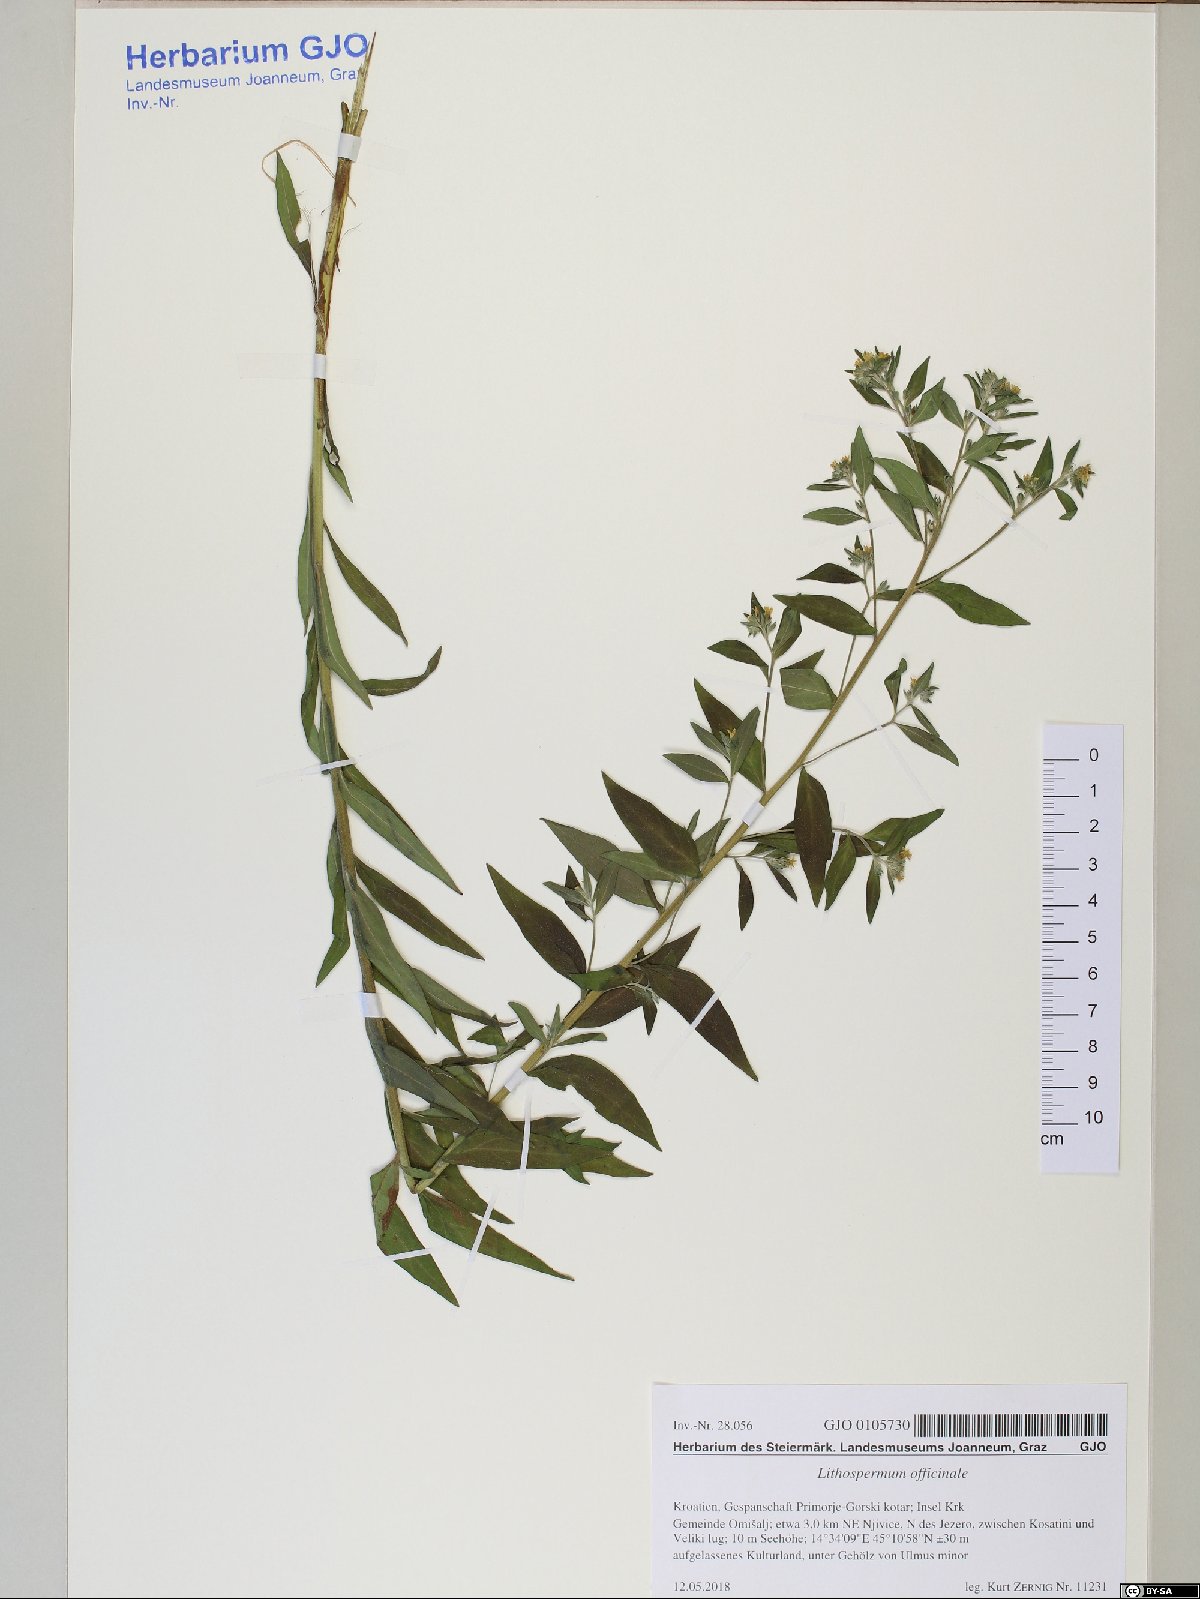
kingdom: Plantae
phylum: Tracheophyta
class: Magnoliopsida
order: Boraginales
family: Boraginaceae
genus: Lithospermum
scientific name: Lithospermum officinale
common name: Common gromwell
